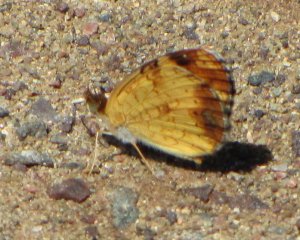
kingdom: Animalia
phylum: Arthropoda
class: Insecta
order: Lepidoptera
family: Nymphalidae
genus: Phyciodes
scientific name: Phyciodes tharos
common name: Northern Crescent
